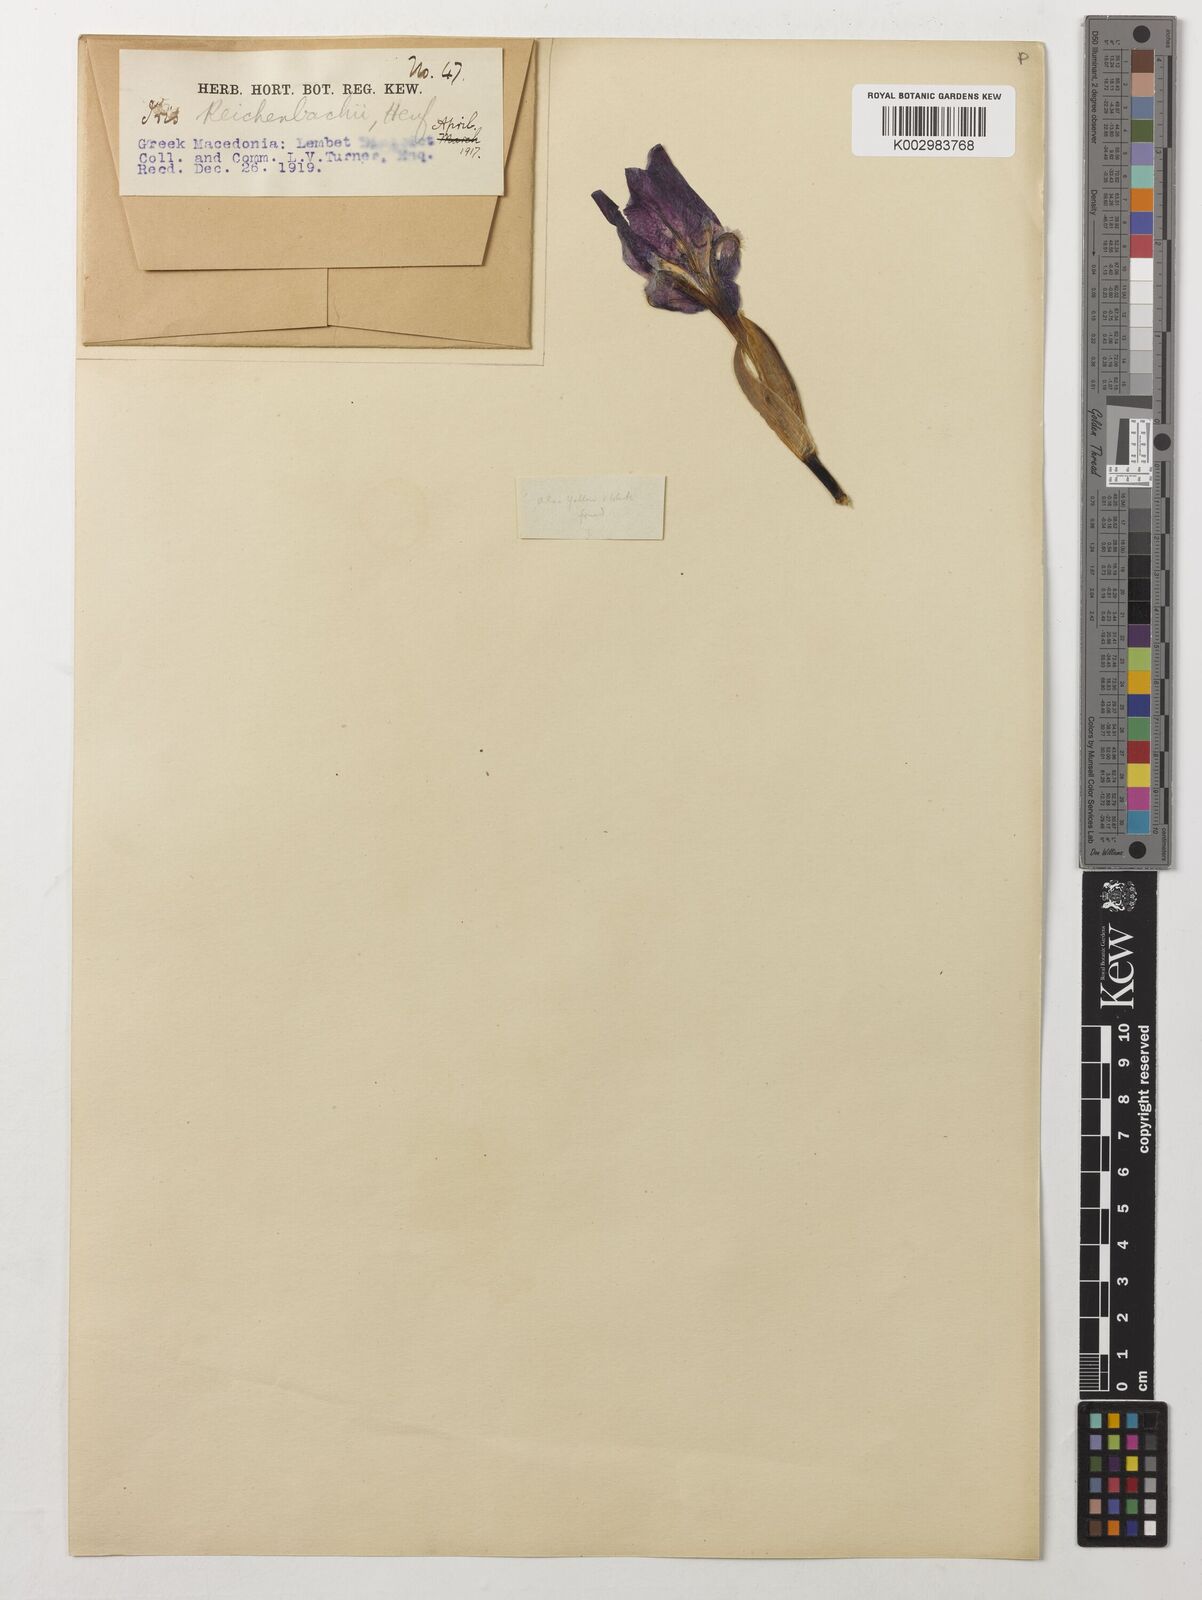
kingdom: Plantae
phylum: Tracheophyta
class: Liliopsida
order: Asparagales
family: Iridaceae
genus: Iris
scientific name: Iris reichenbachii
